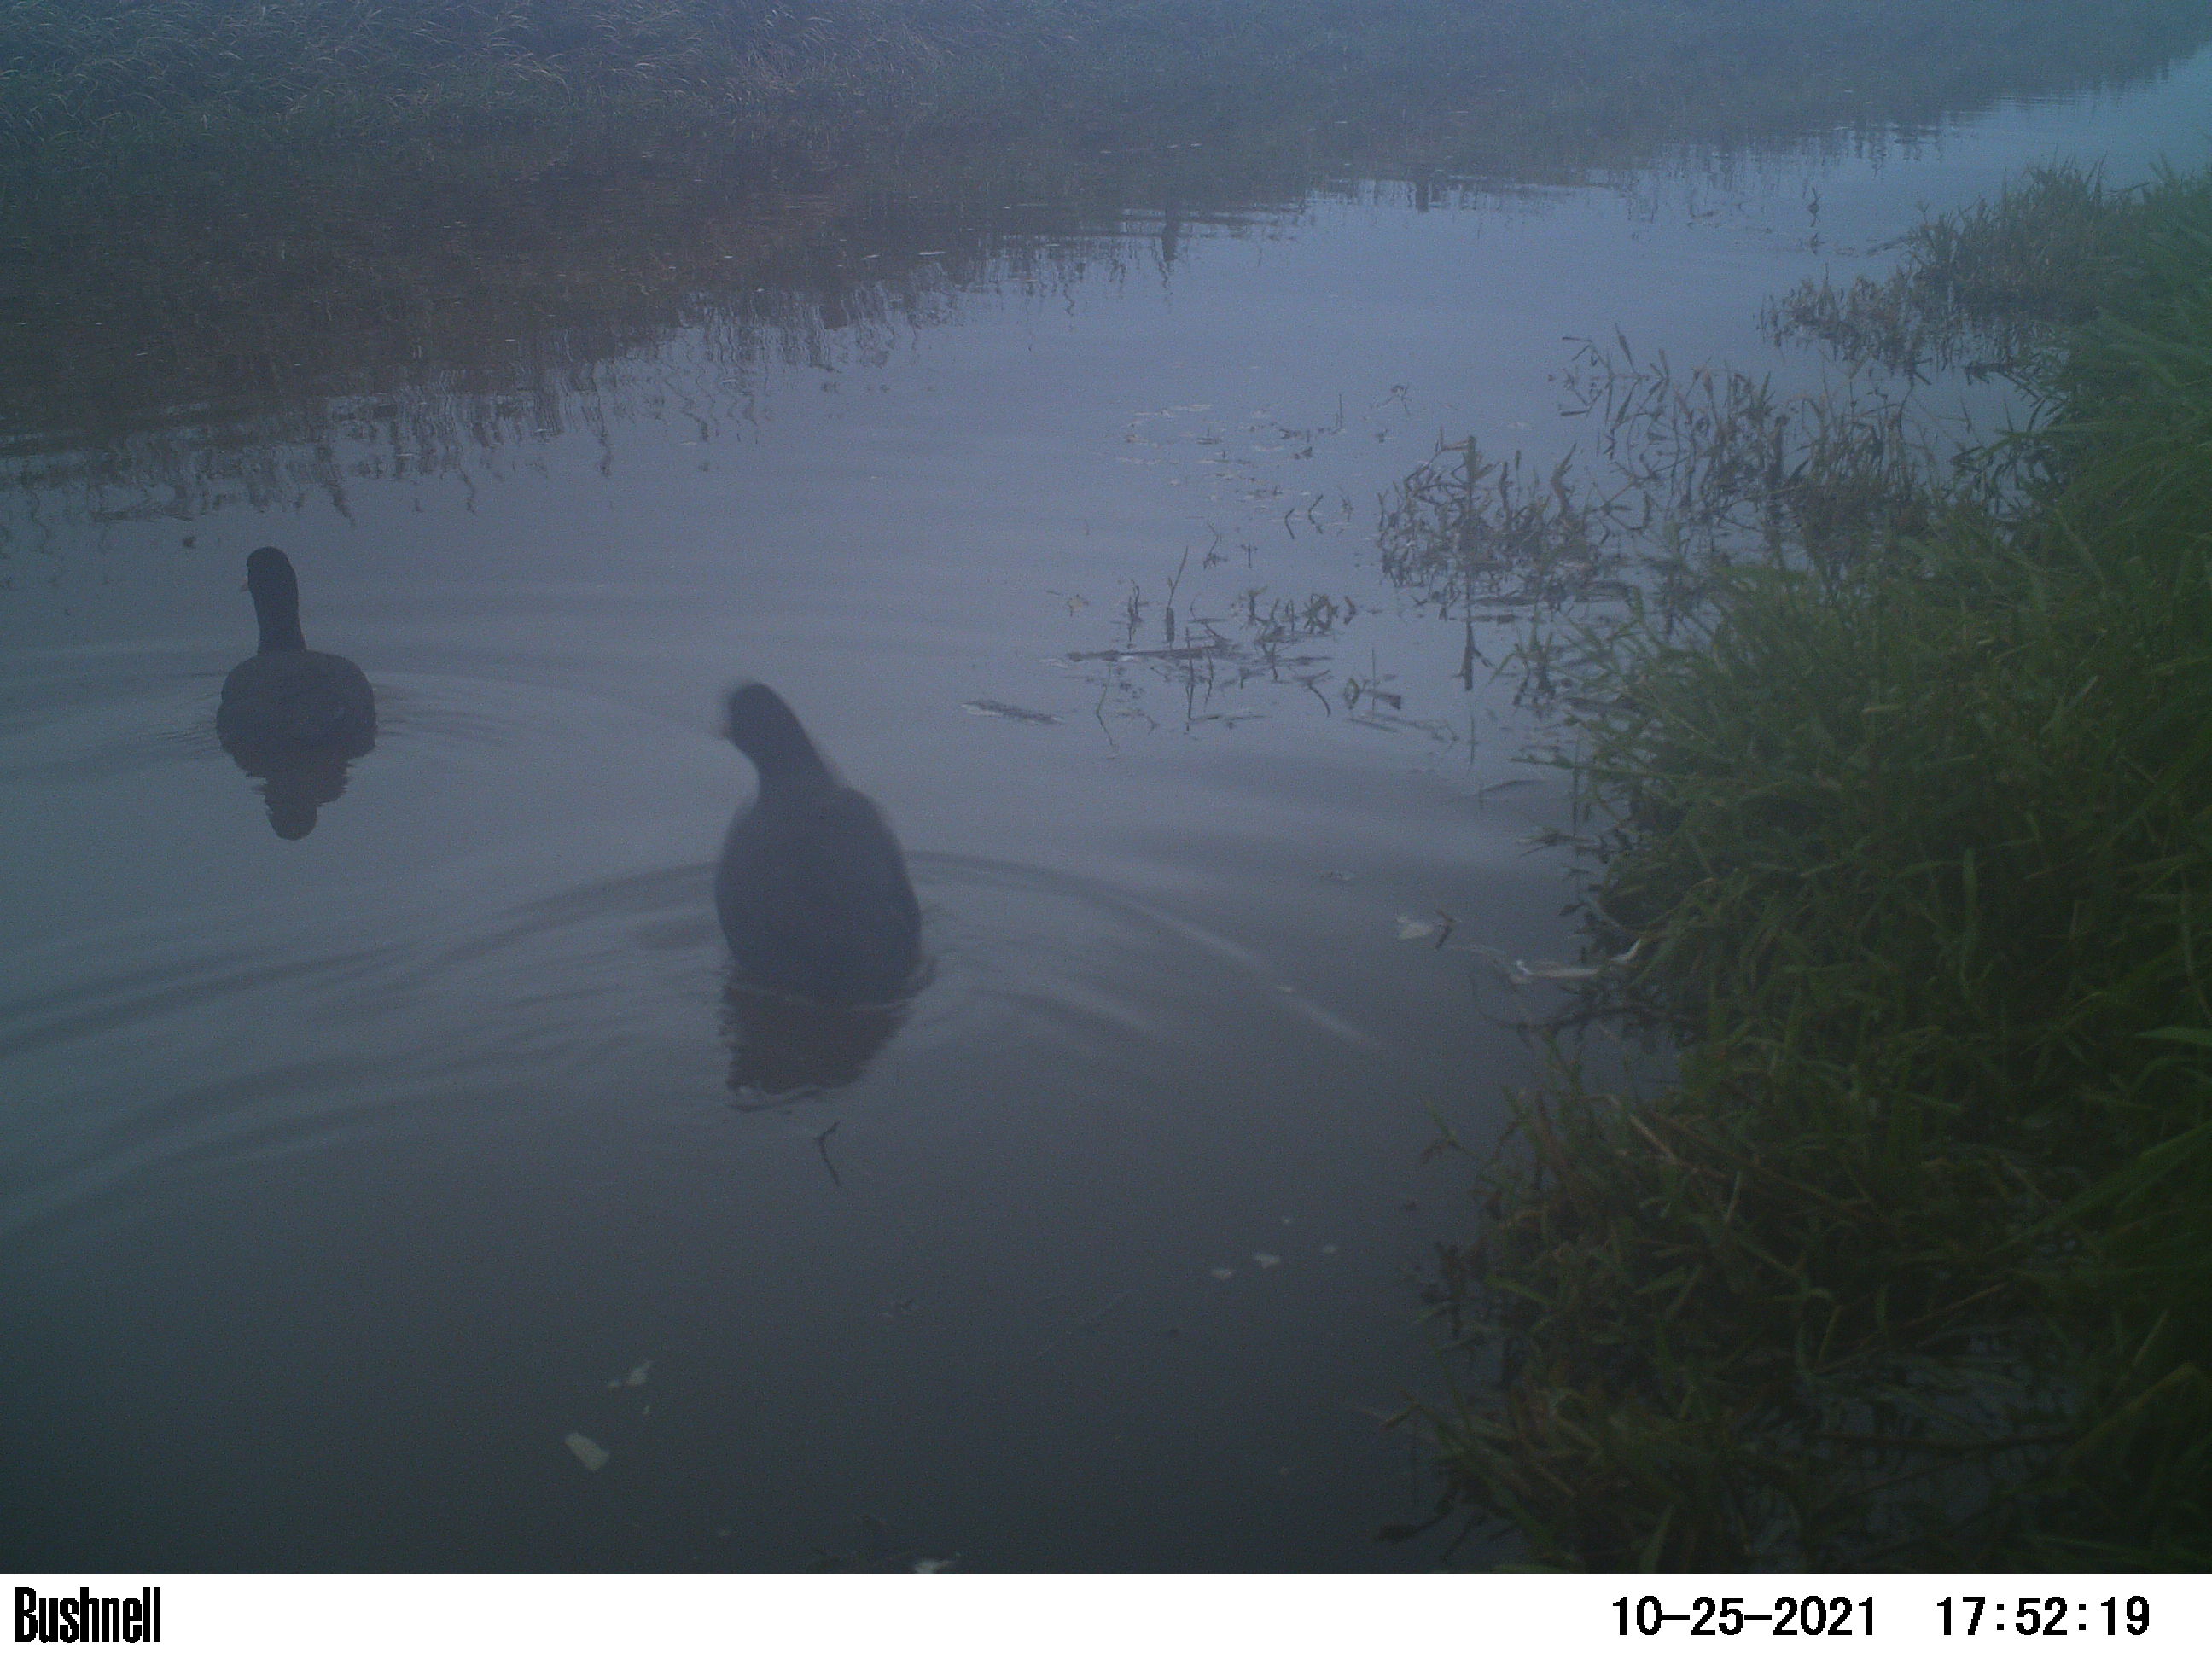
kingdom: Animalia
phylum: Chordata
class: Aves
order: Gruiformes
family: Rallidae
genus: Fulica
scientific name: Fulica atra
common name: Eurasian coot
